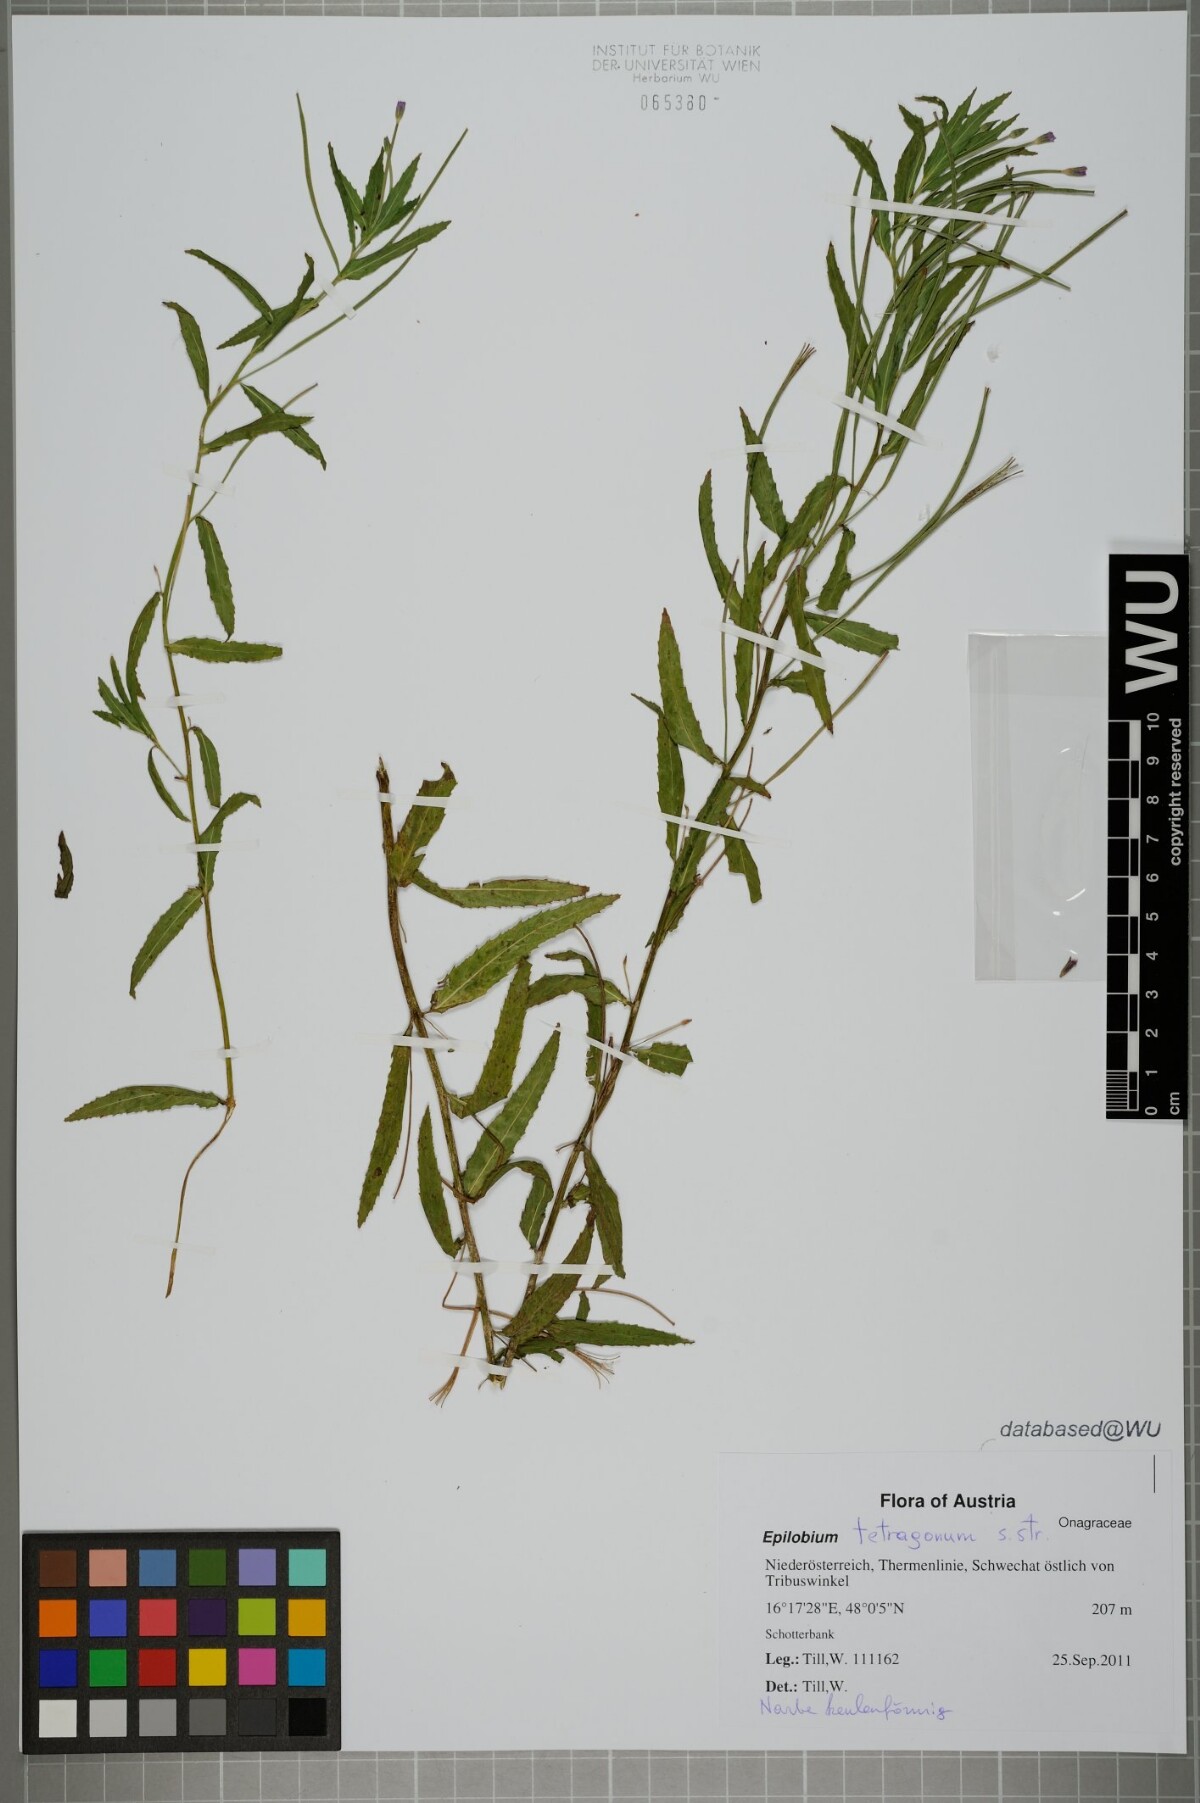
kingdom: Plantae
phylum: Tracheophyta
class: Magnoliopsida
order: Myrtales
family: Onagraceae
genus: Epilobium
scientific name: Epilobium tetragonum
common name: Square-stemmed willowherb
